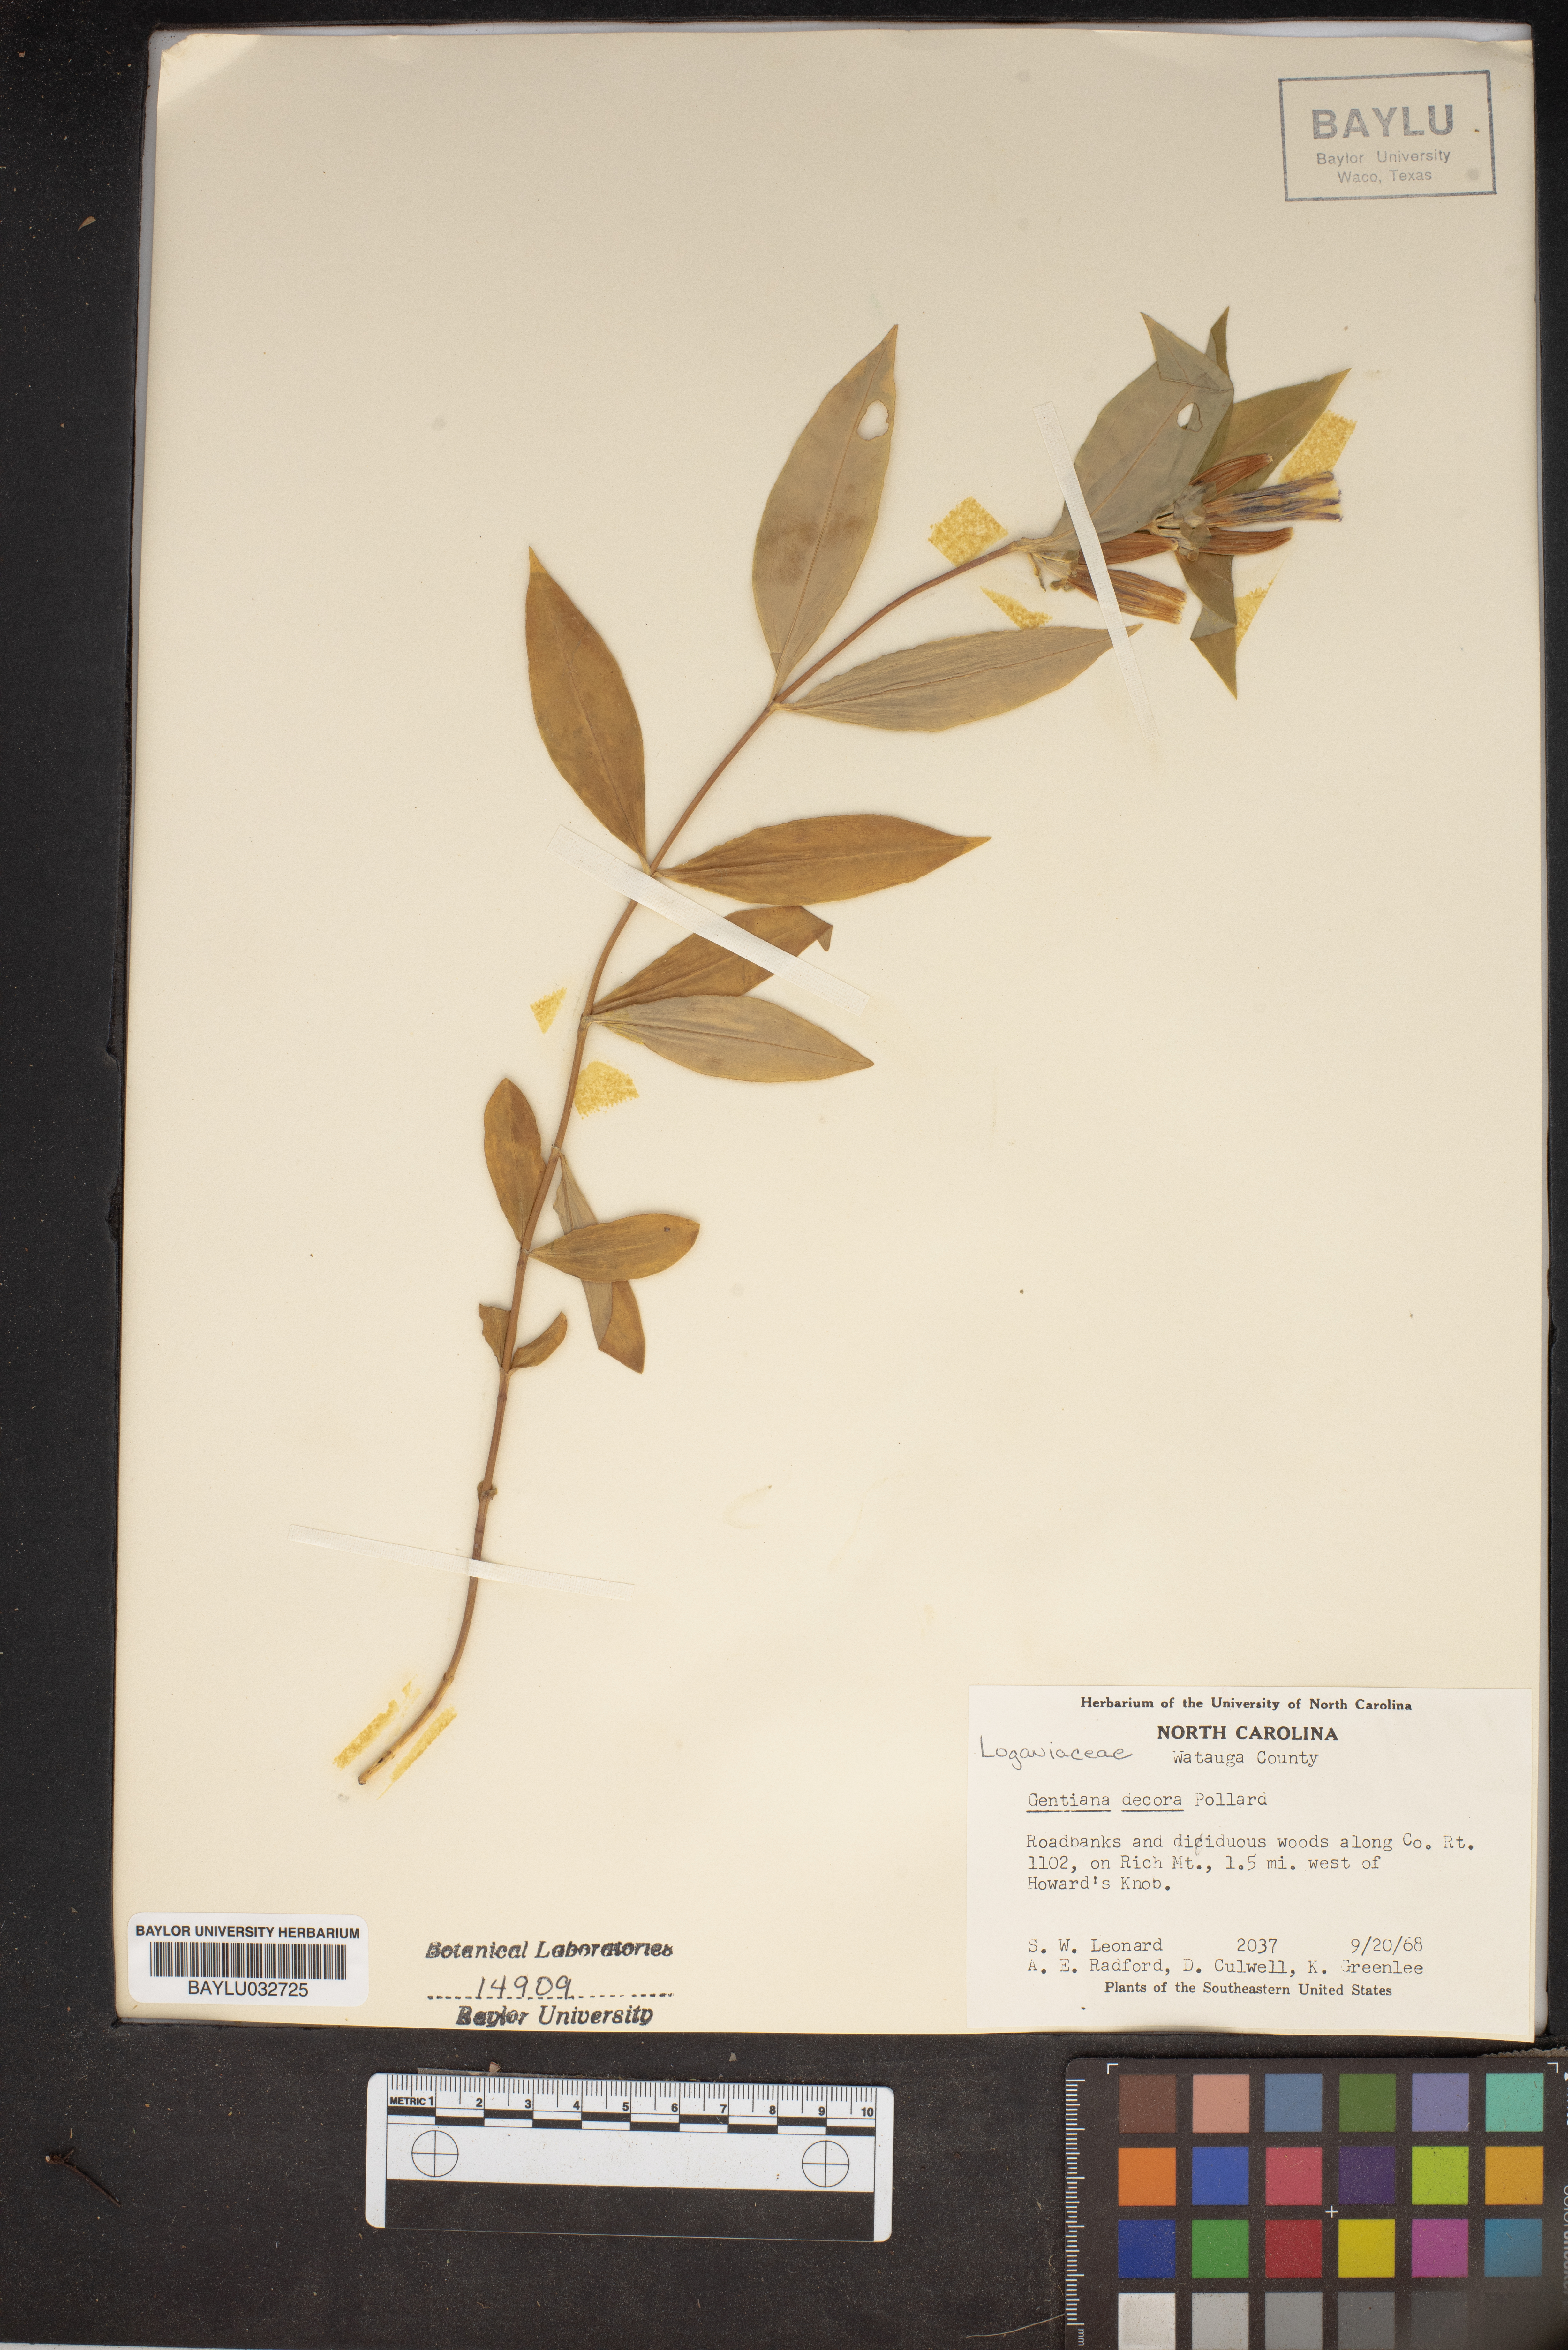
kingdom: Plantae
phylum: Tracheophyta
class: Magnoliopsida
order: Gentianales
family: Gentianaceae
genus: Gentiana
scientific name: Gentiana decora
